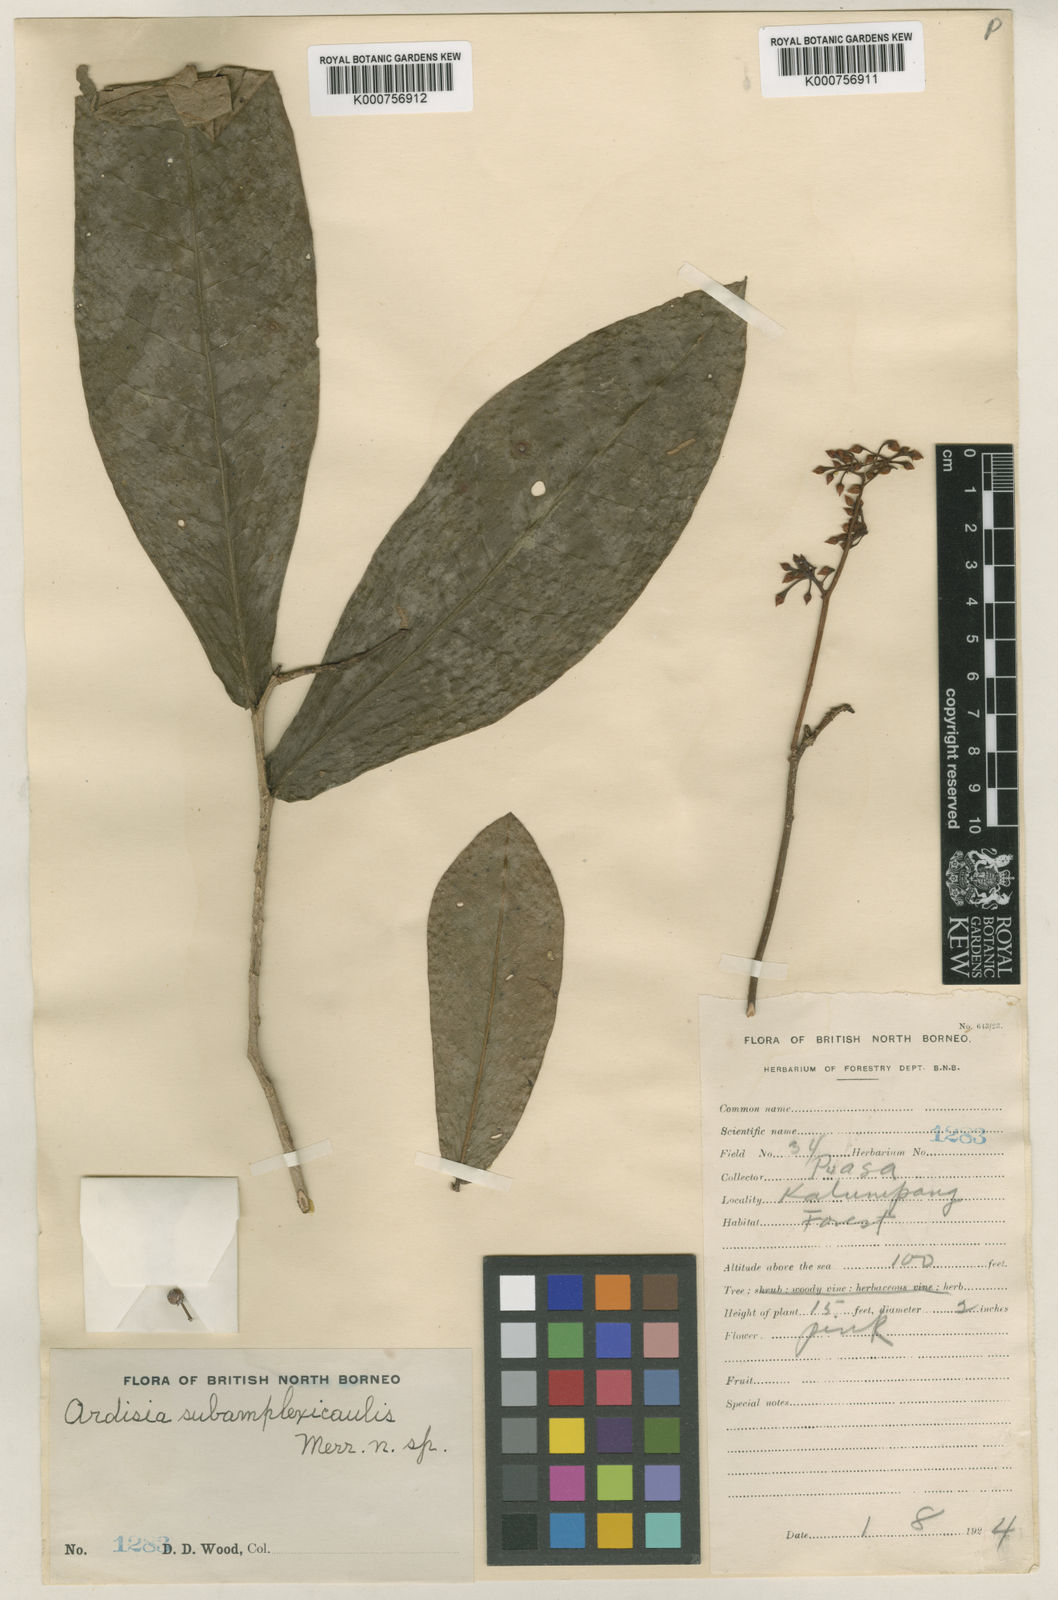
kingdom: Plantae
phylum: Tracheophyta
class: Magnoliopsida
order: Ericales
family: Primulaceae
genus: Ardisia
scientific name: Ardisia caudifera
